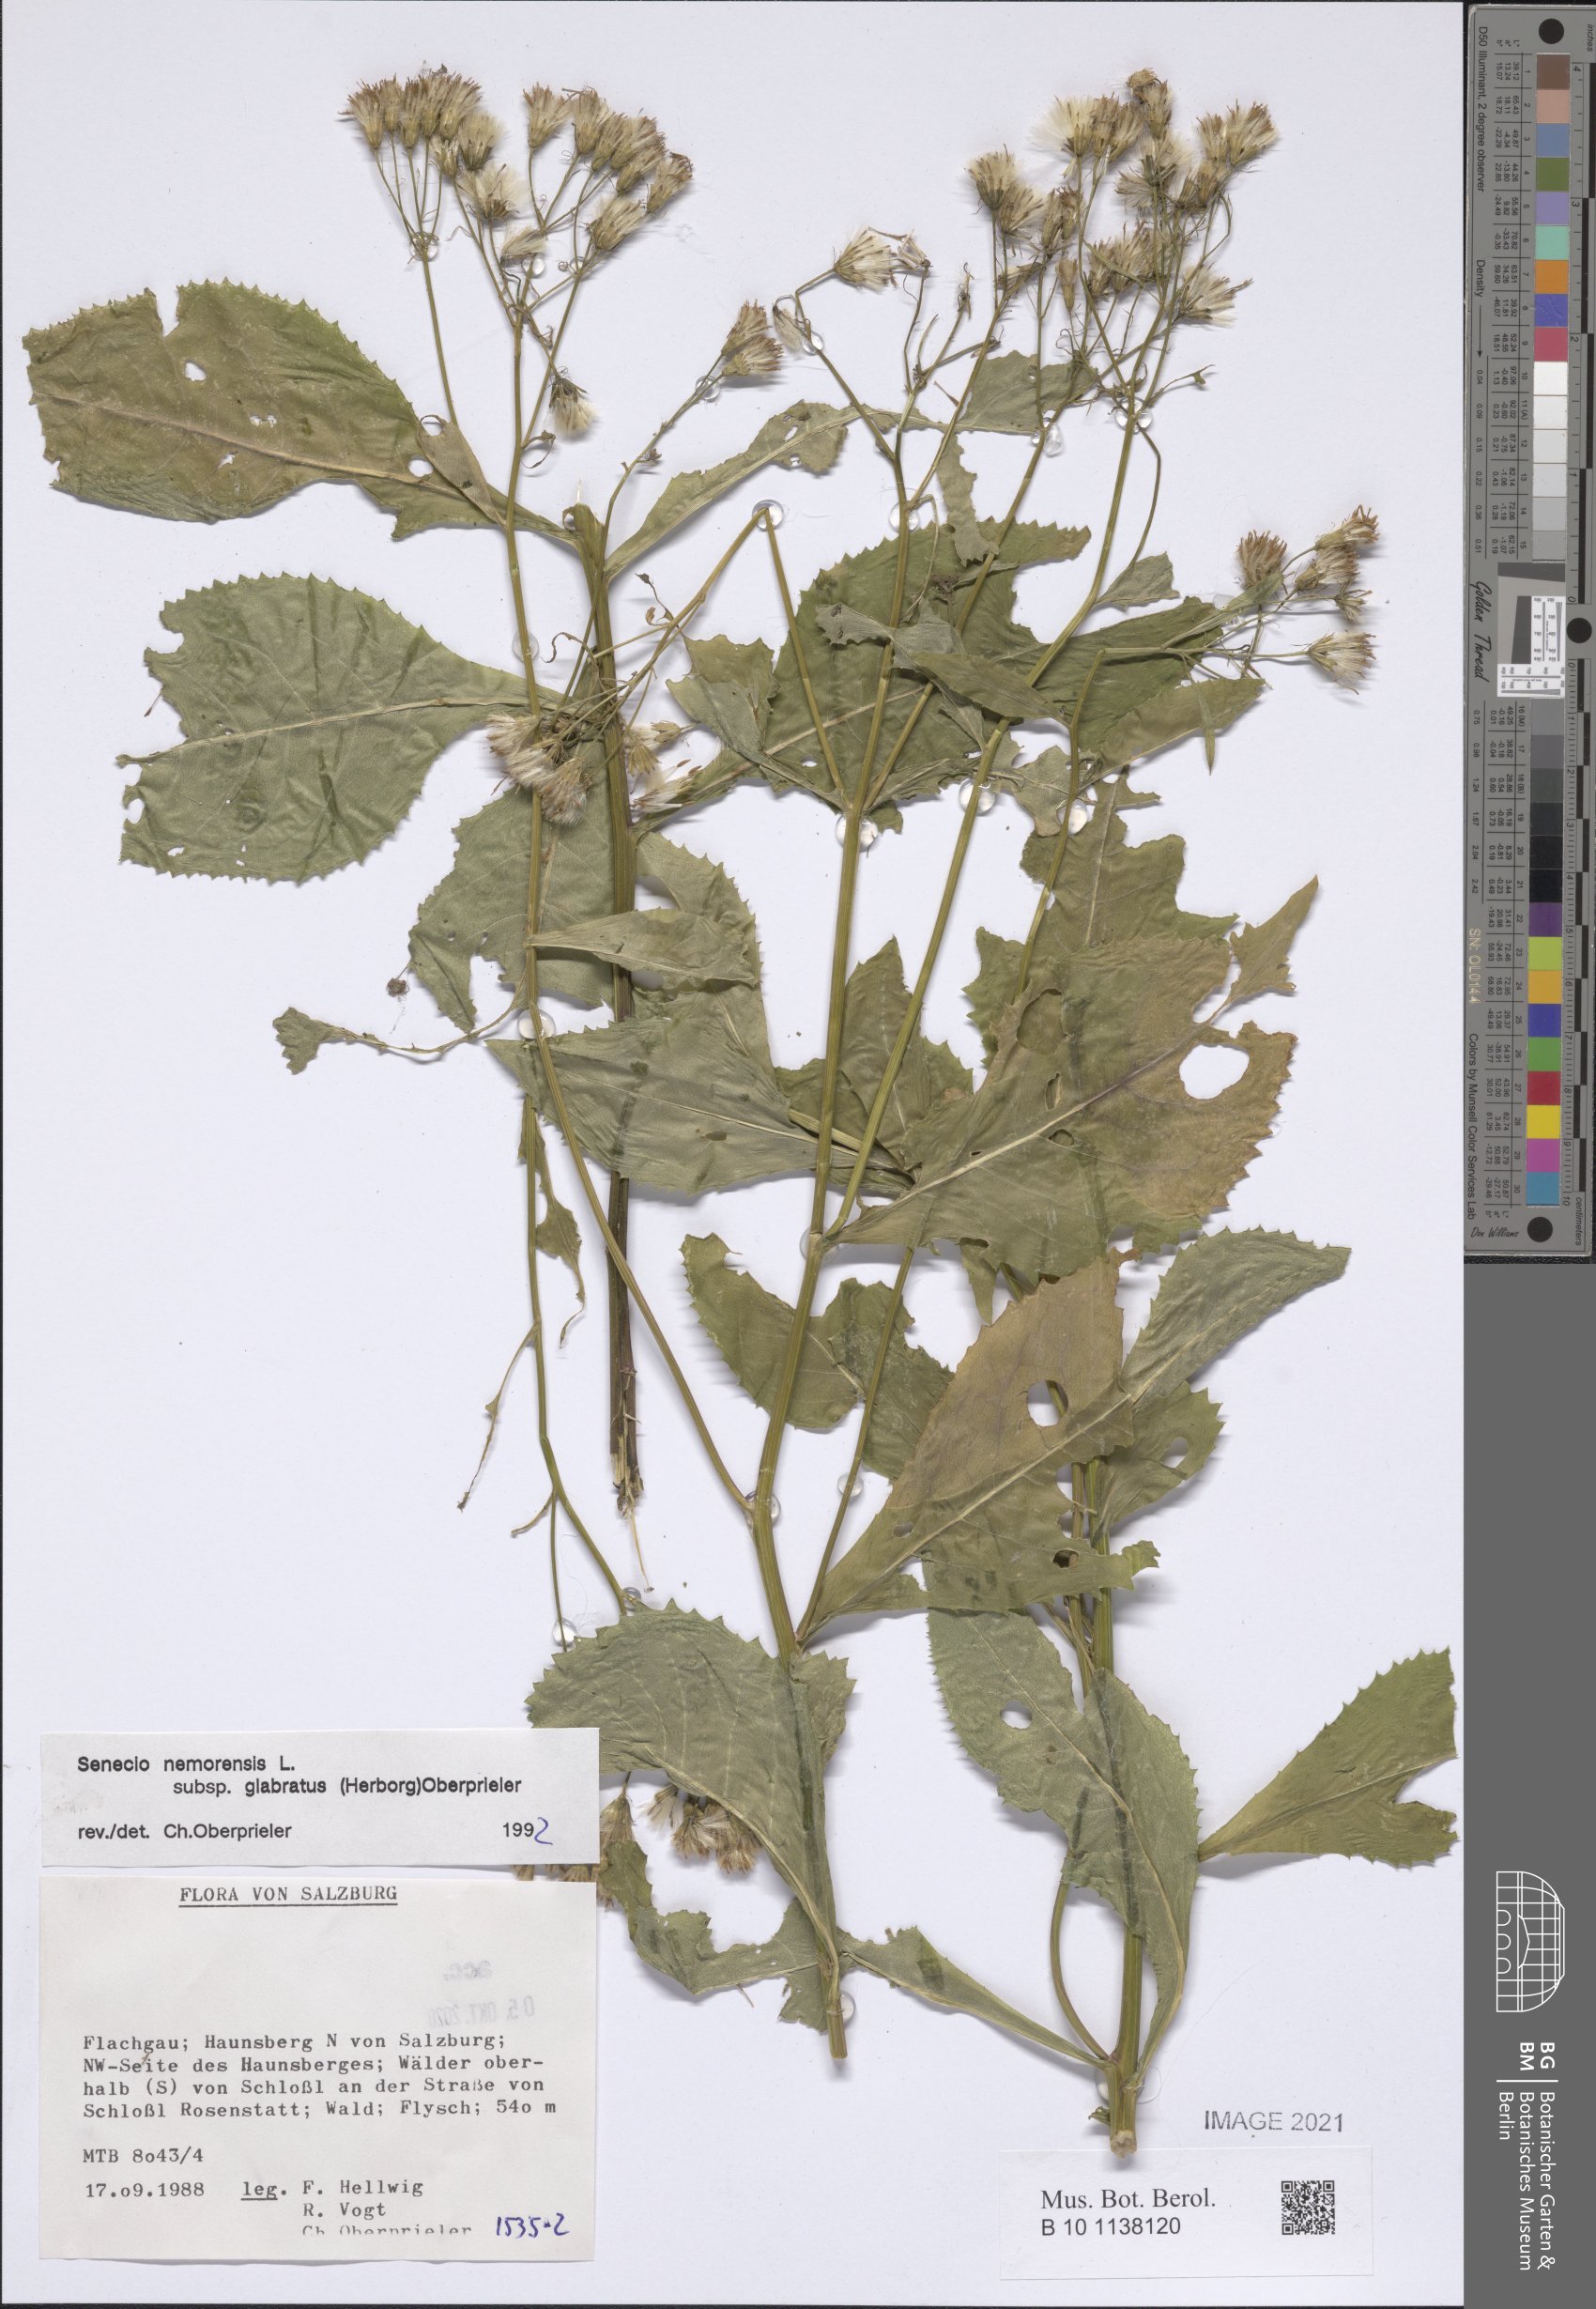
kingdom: Plantae
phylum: Tracheophyta
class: Magnoliopsida
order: Asterales
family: Asteraceae
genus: Senecio
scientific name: Senecio germanicus
